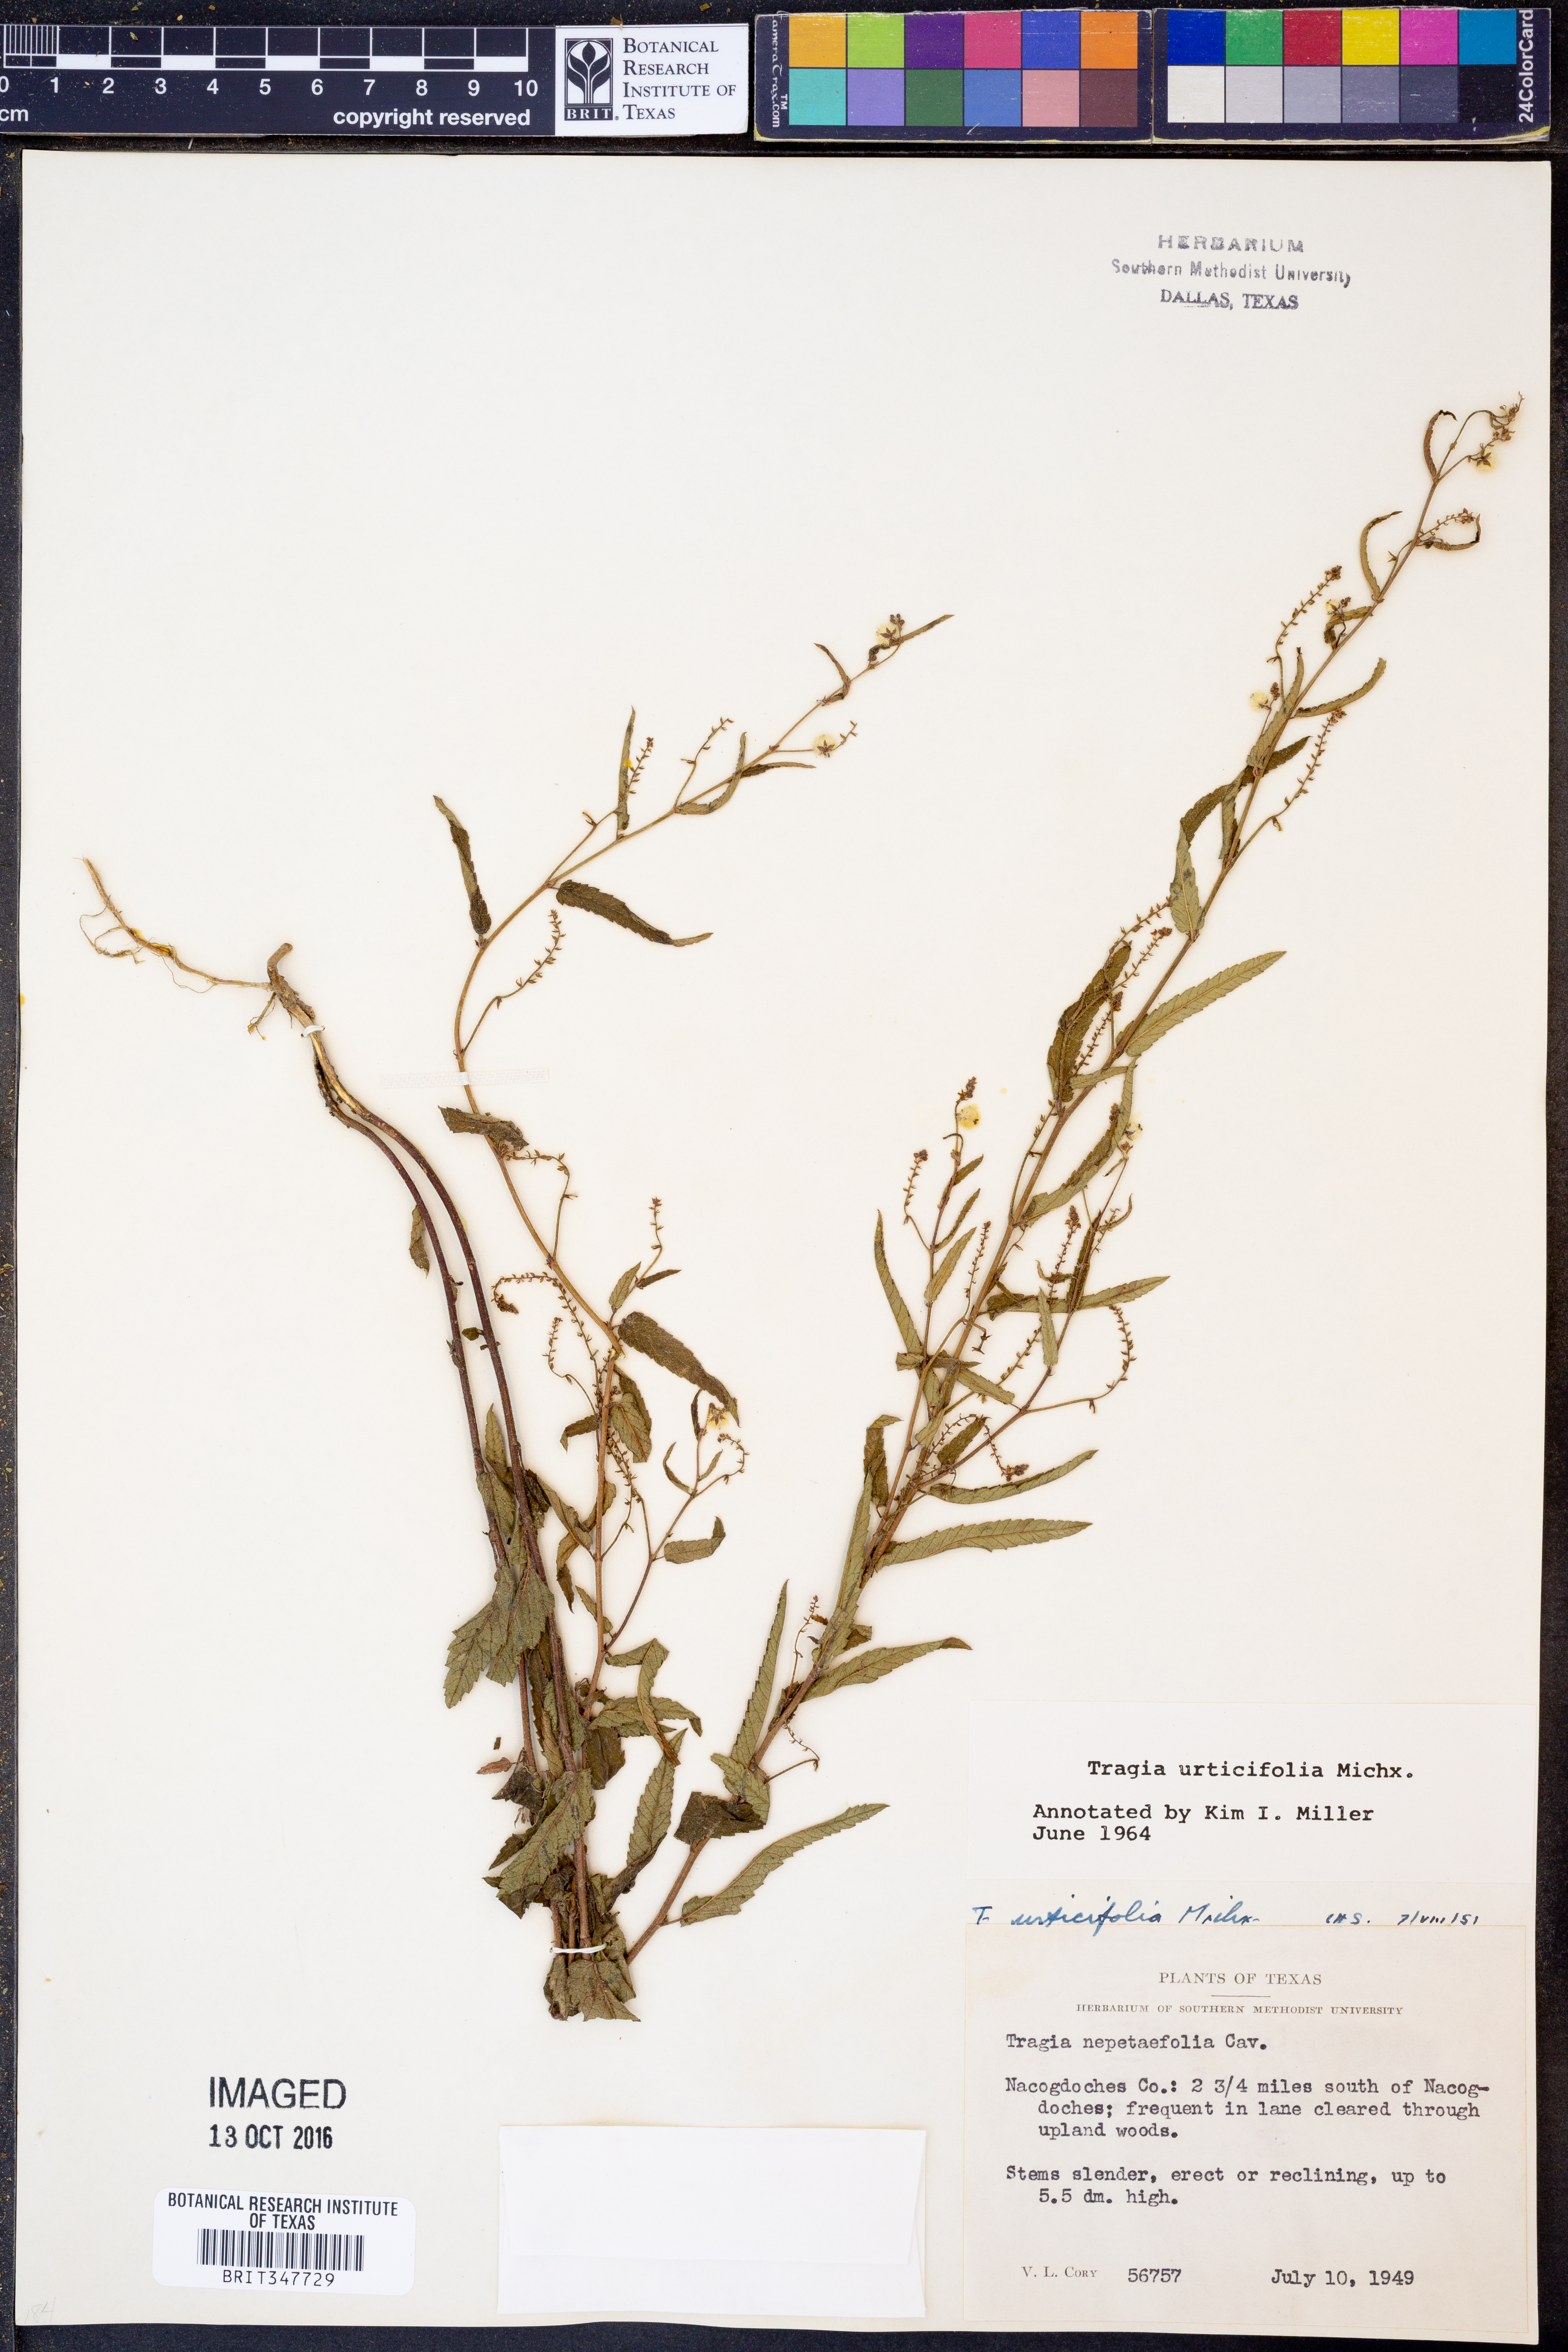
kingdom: Plantae
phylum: Tracheophyta
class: Magnoliopsida
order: Malpighiales
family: Euphorbiaceae
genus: Tragia
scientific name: Tragia urticifolia
